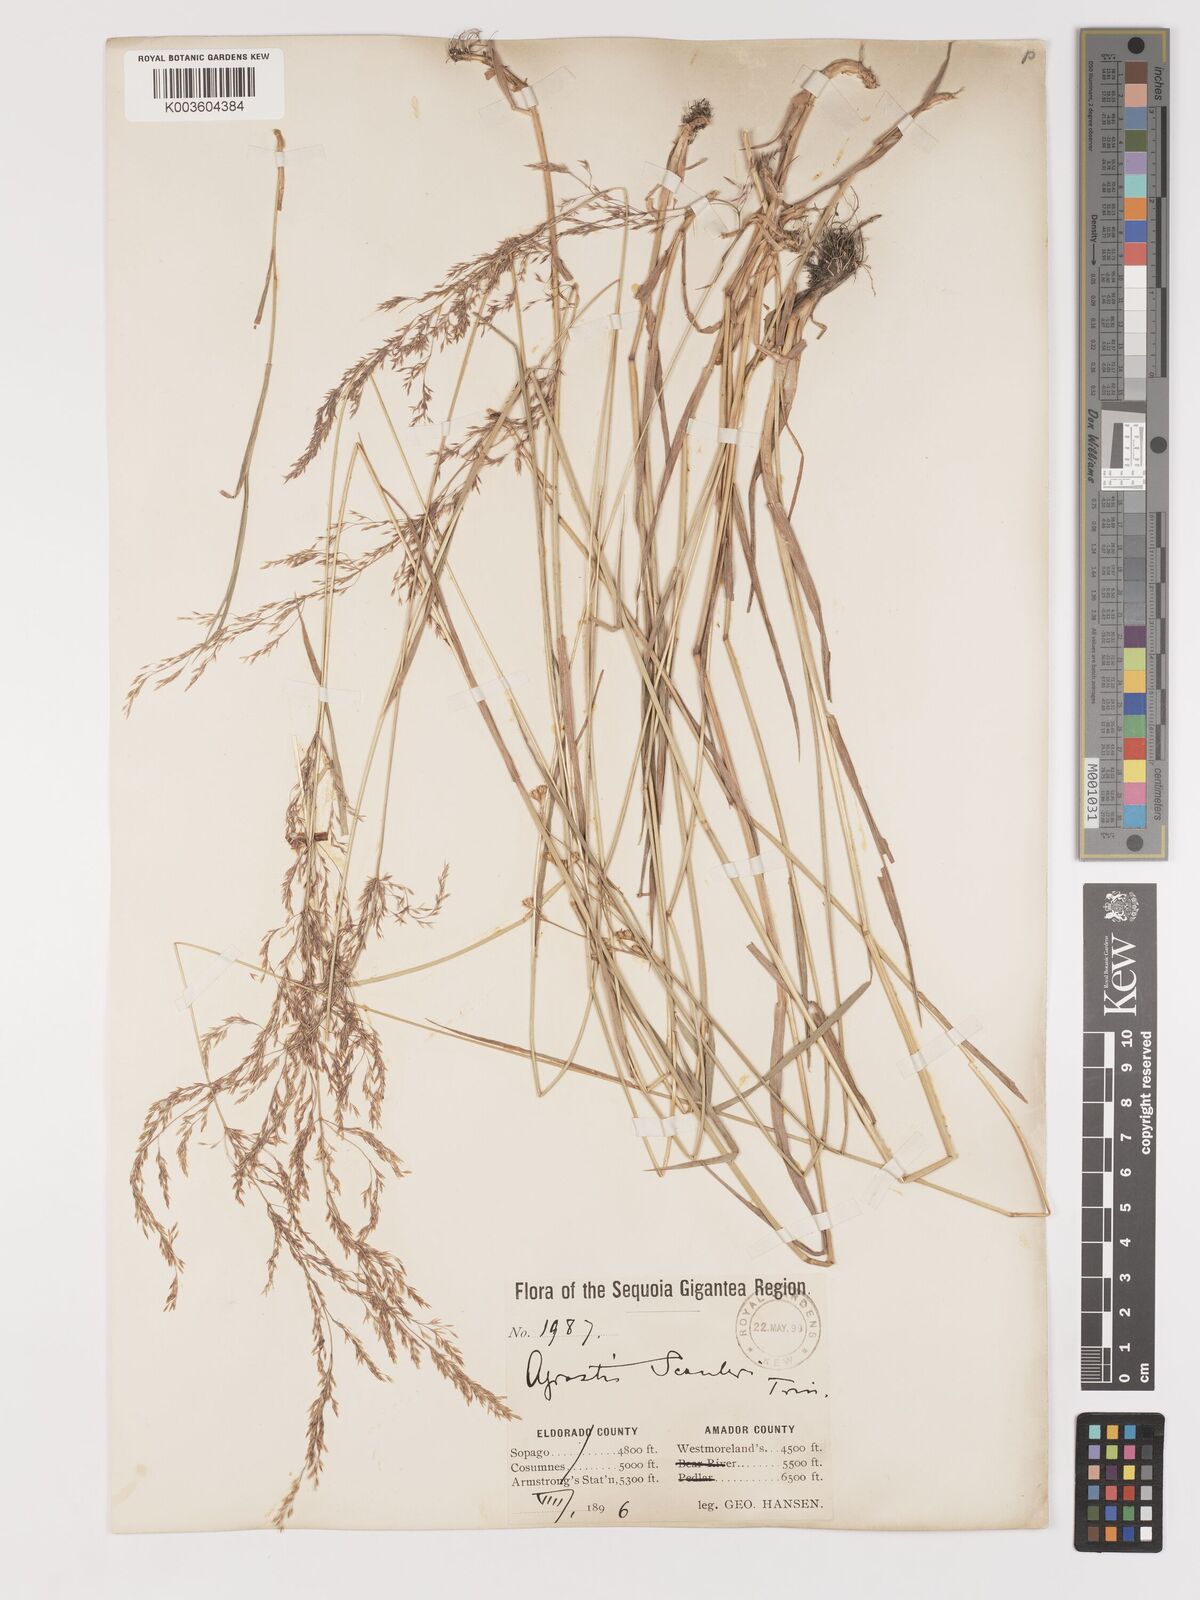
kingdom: Plantae
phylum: Tracheophyta
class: Liliopsida
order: Poales
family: Poaceae
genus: Agrostis
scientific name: Agrostis exarata
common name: Spike bent
